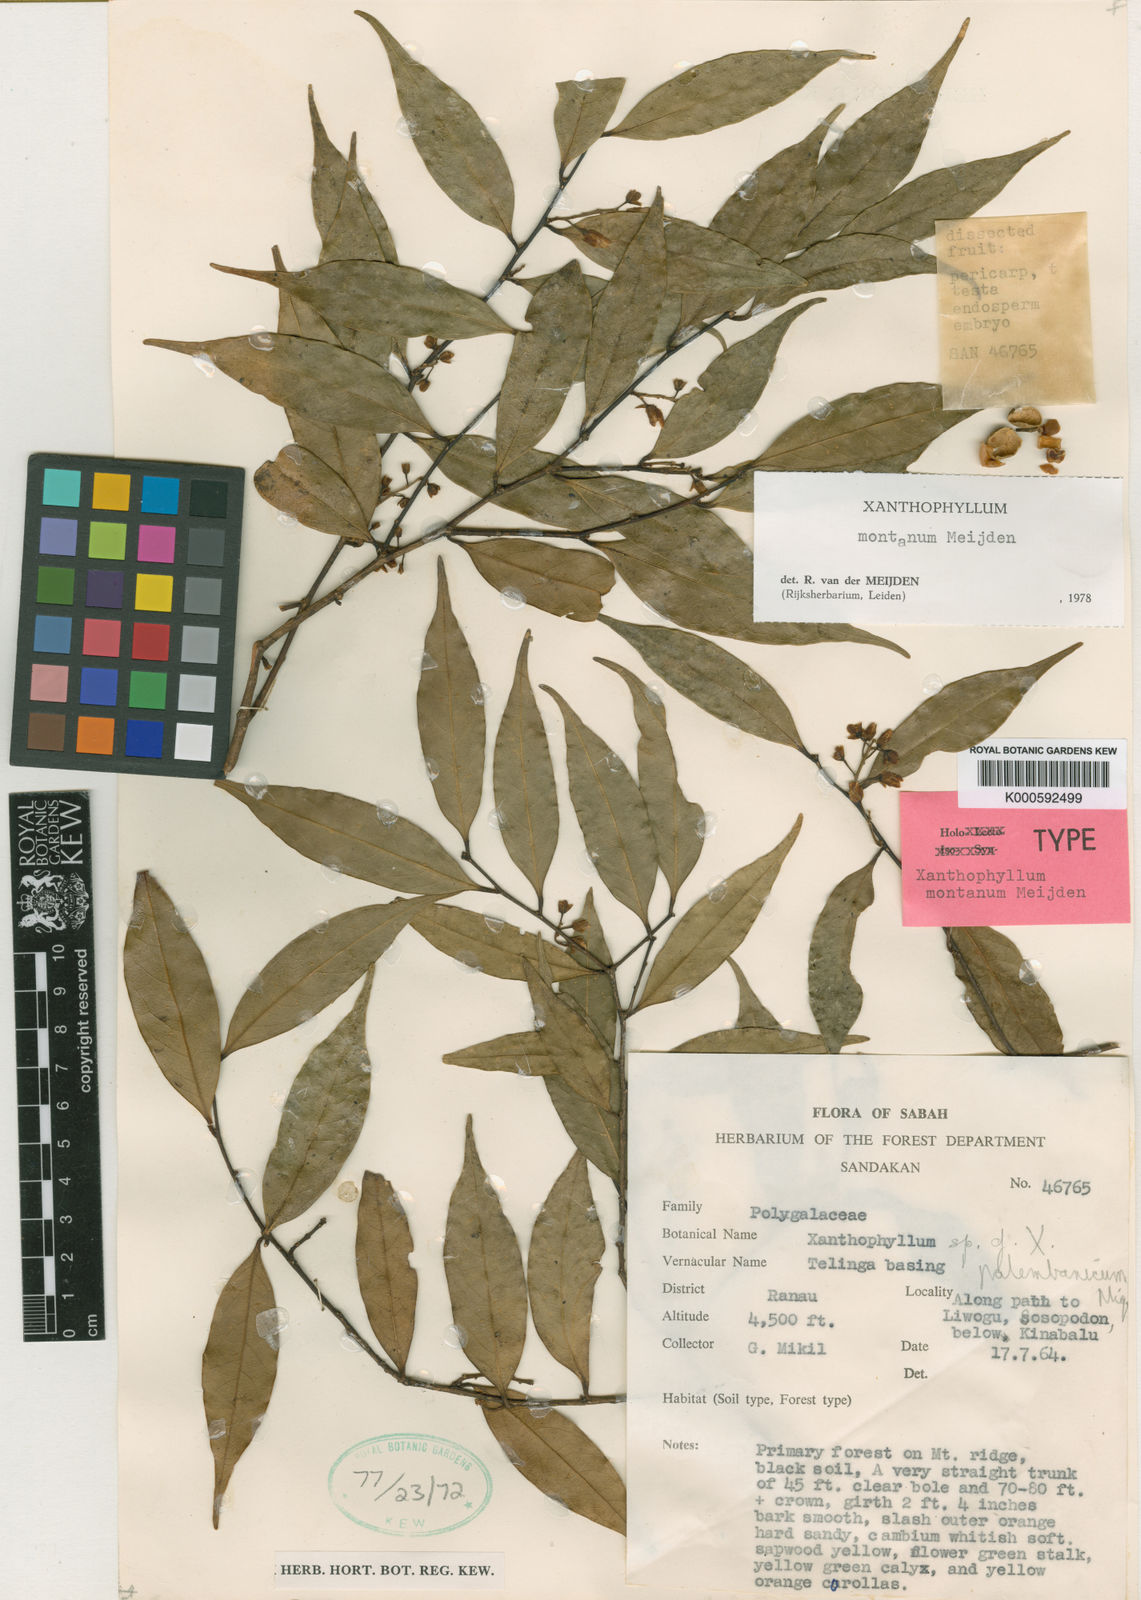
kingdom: Plantae
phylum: Tracheophyta
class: Magnoliopsida
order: Fabales
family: Polygalaceae
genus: Xanthophyllum
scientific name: Xanthophyllum montanum
